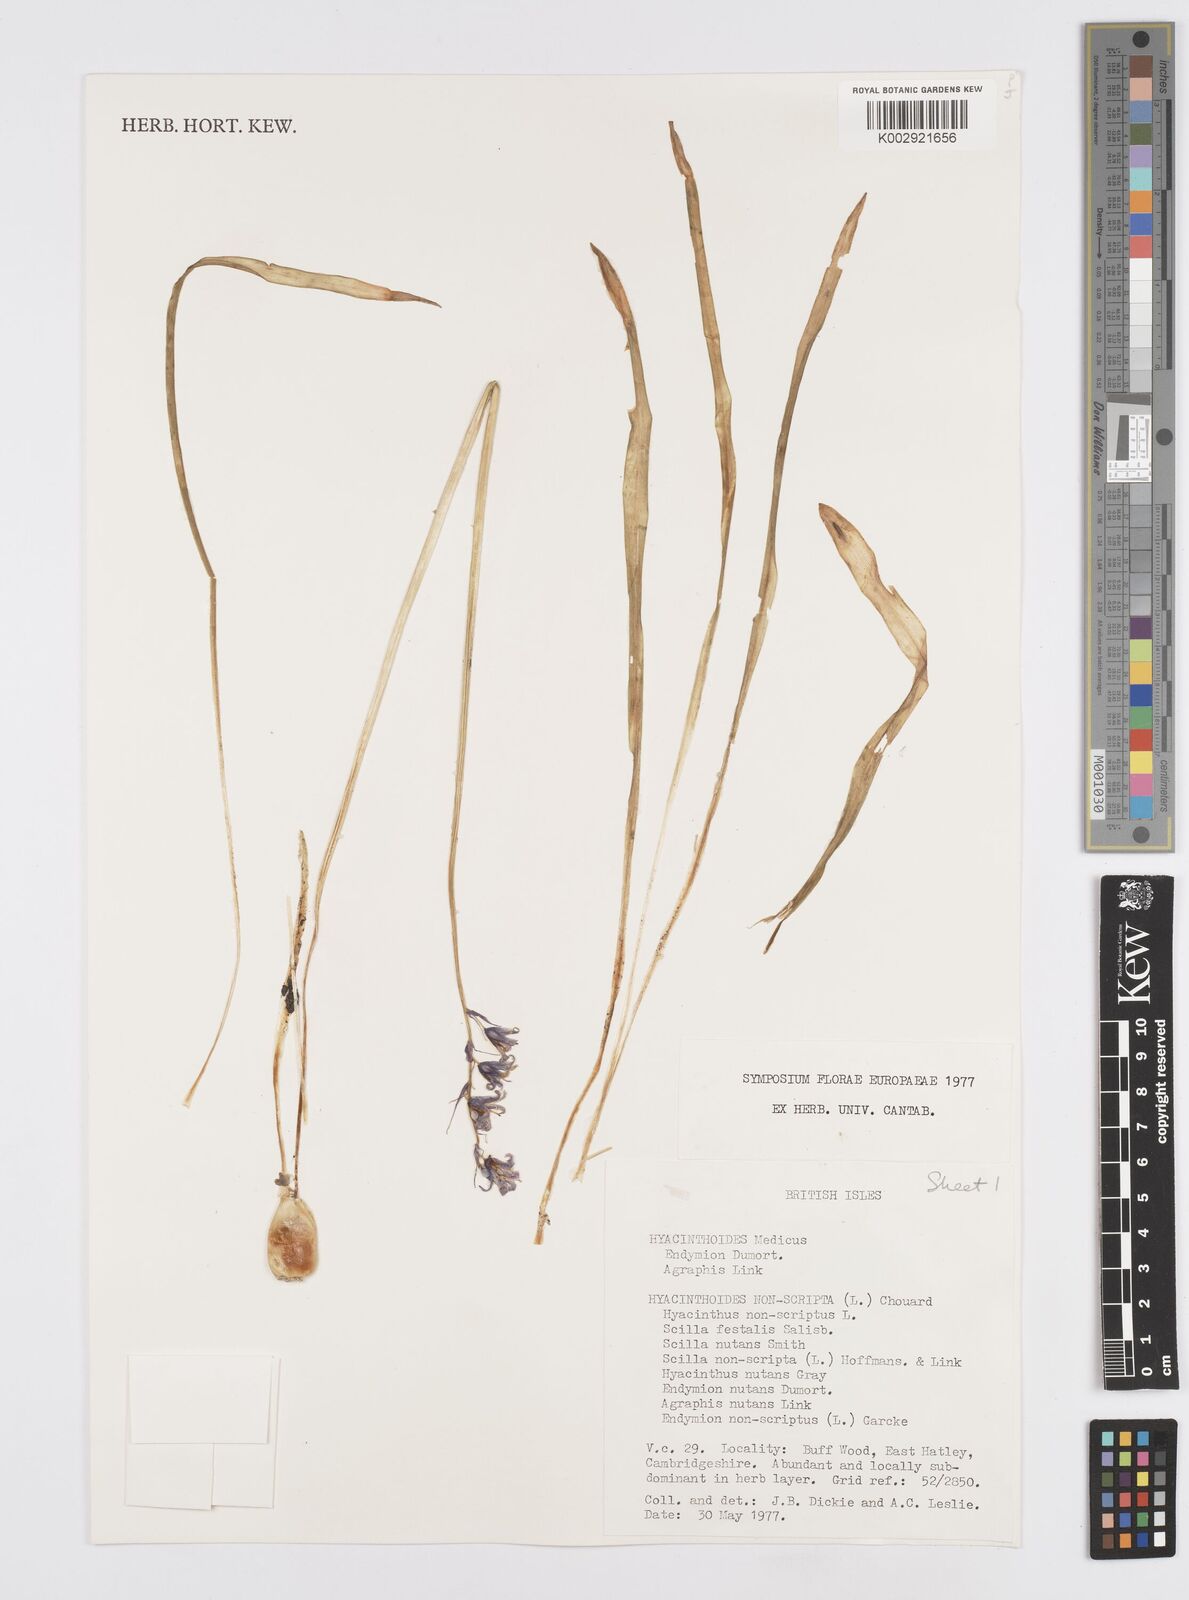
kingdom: Plantae
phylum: Tracheophyta
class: Liliopsida
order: Asparagales
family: Asparagaceae
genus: Hyacinthoides
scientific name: Hyacinthoides non-scripta
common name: Bluebell
